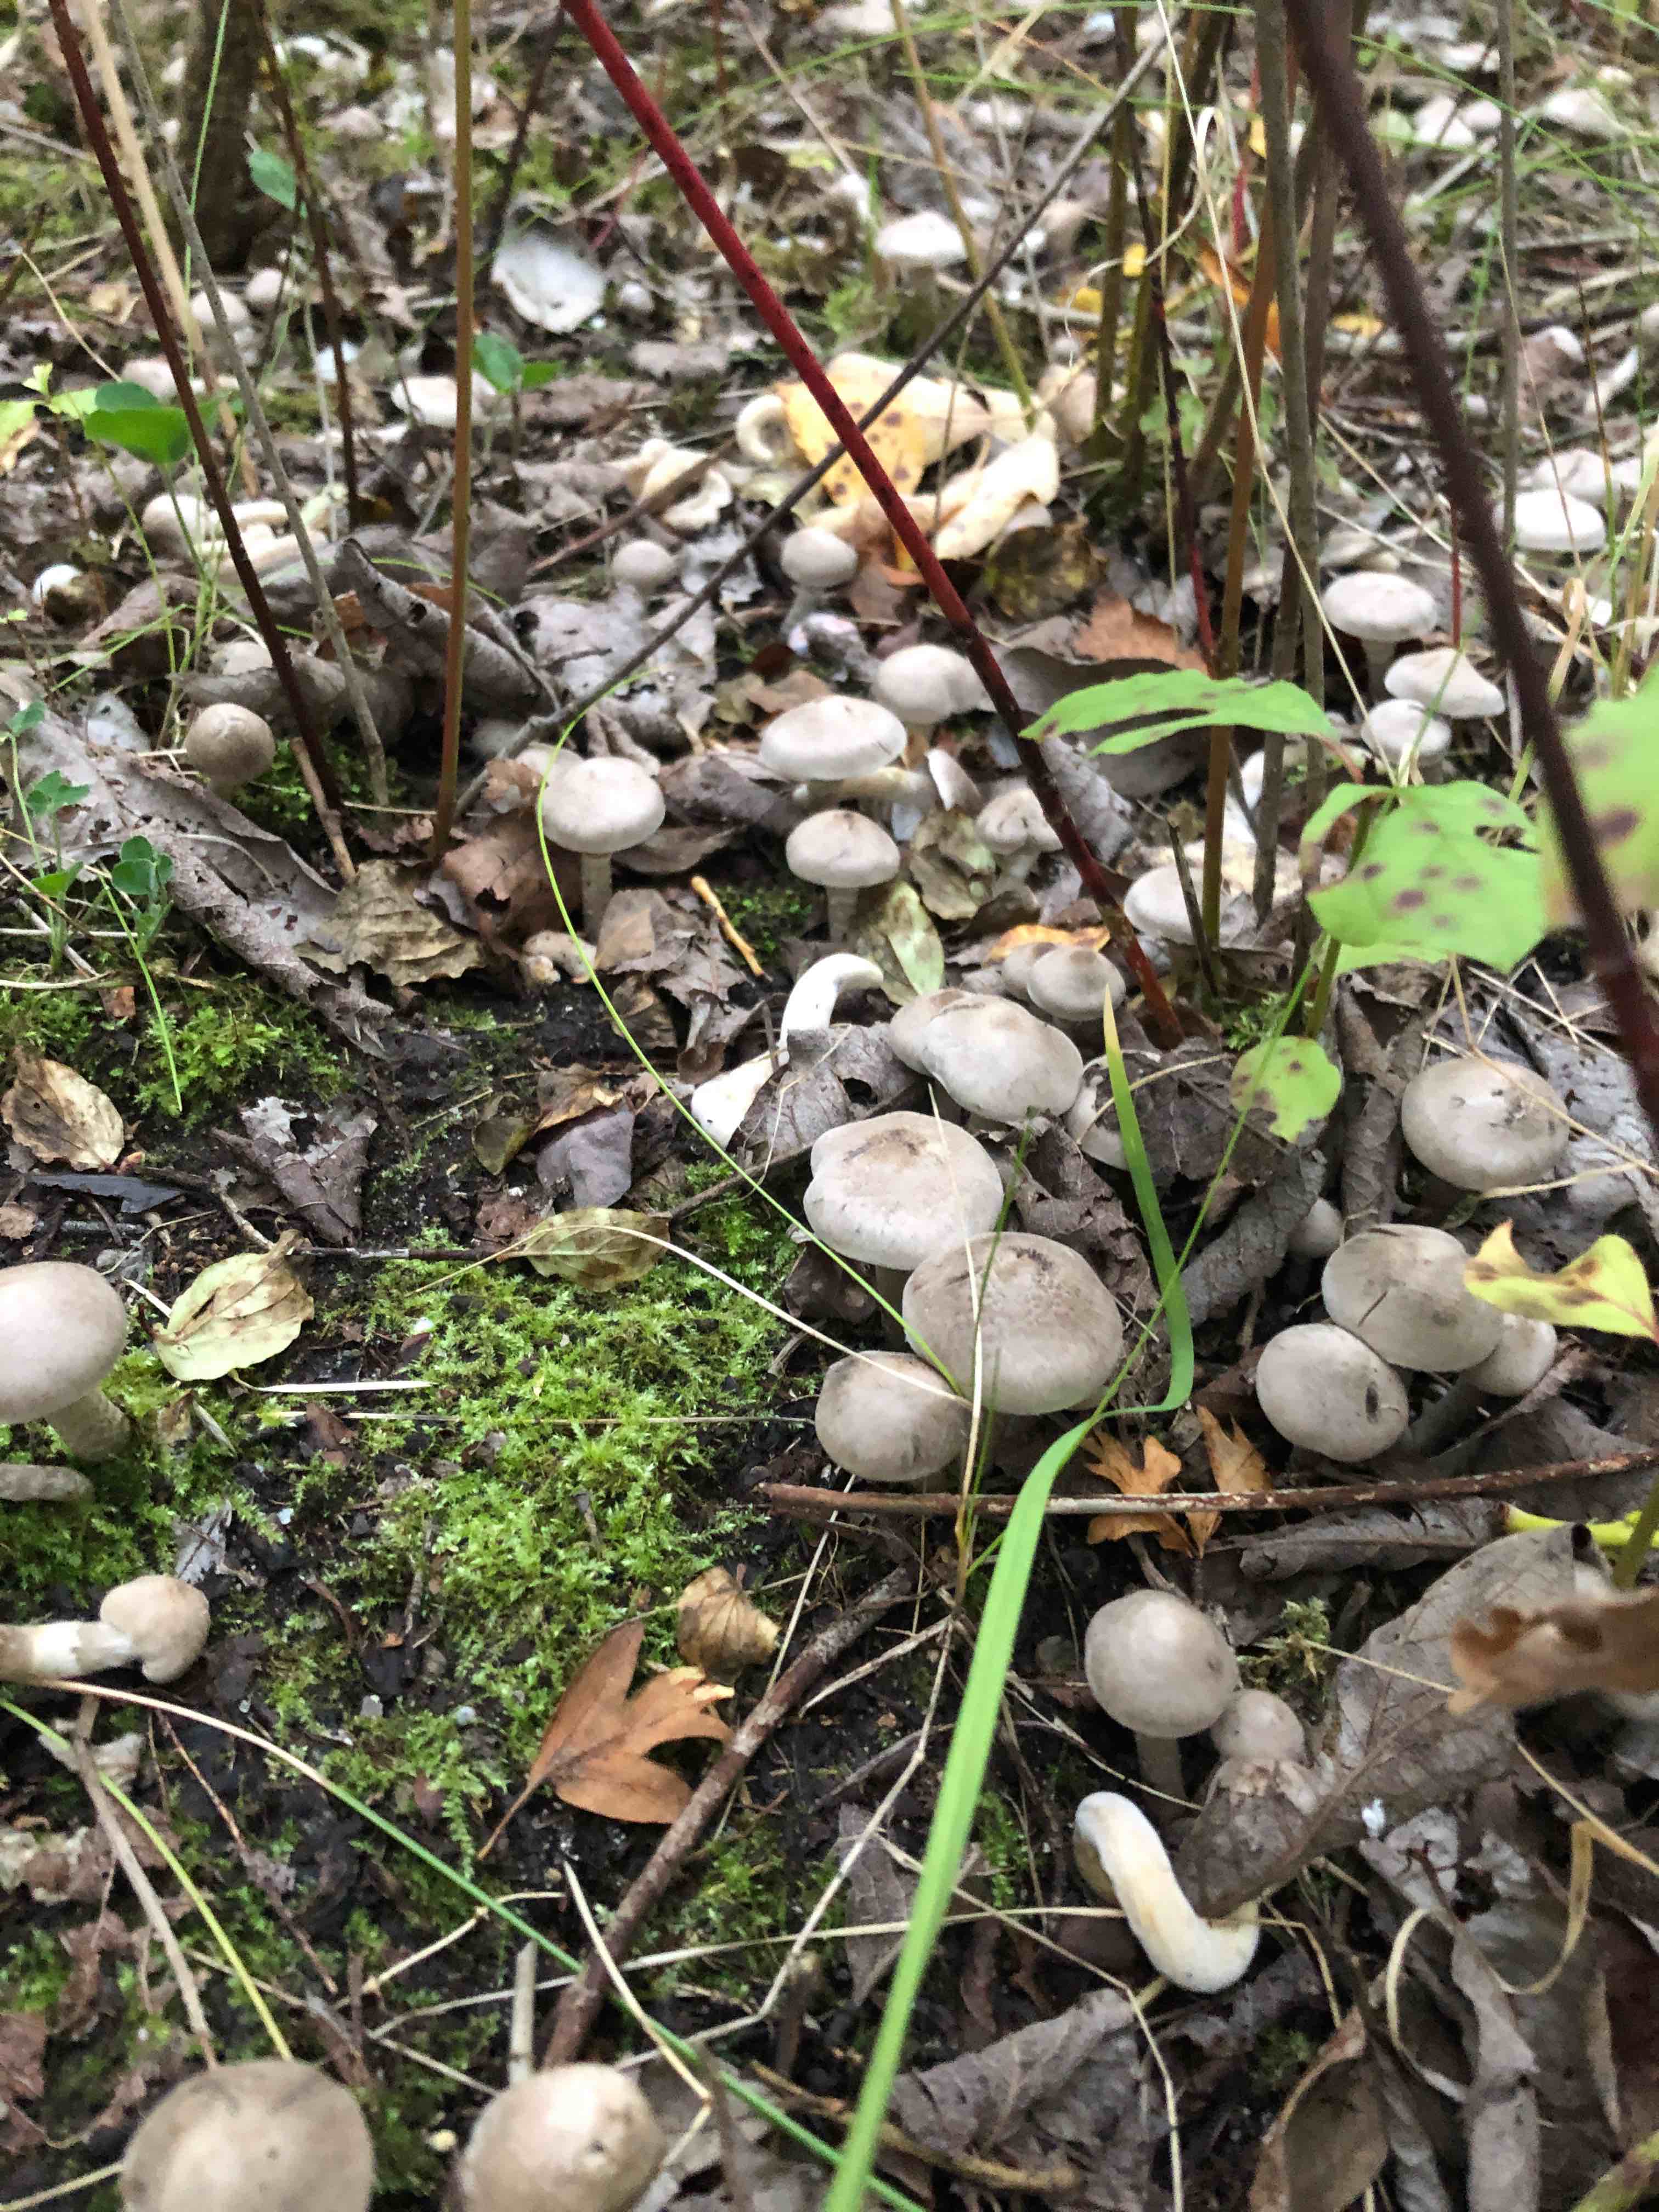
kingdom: Fungi
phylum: Basidiomycota
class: Agaricomycetes
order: Agaricales
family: Tricholomataceae
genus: Tricholoma
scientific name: Tricholoma cingulatum
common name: ring-ridderhat
